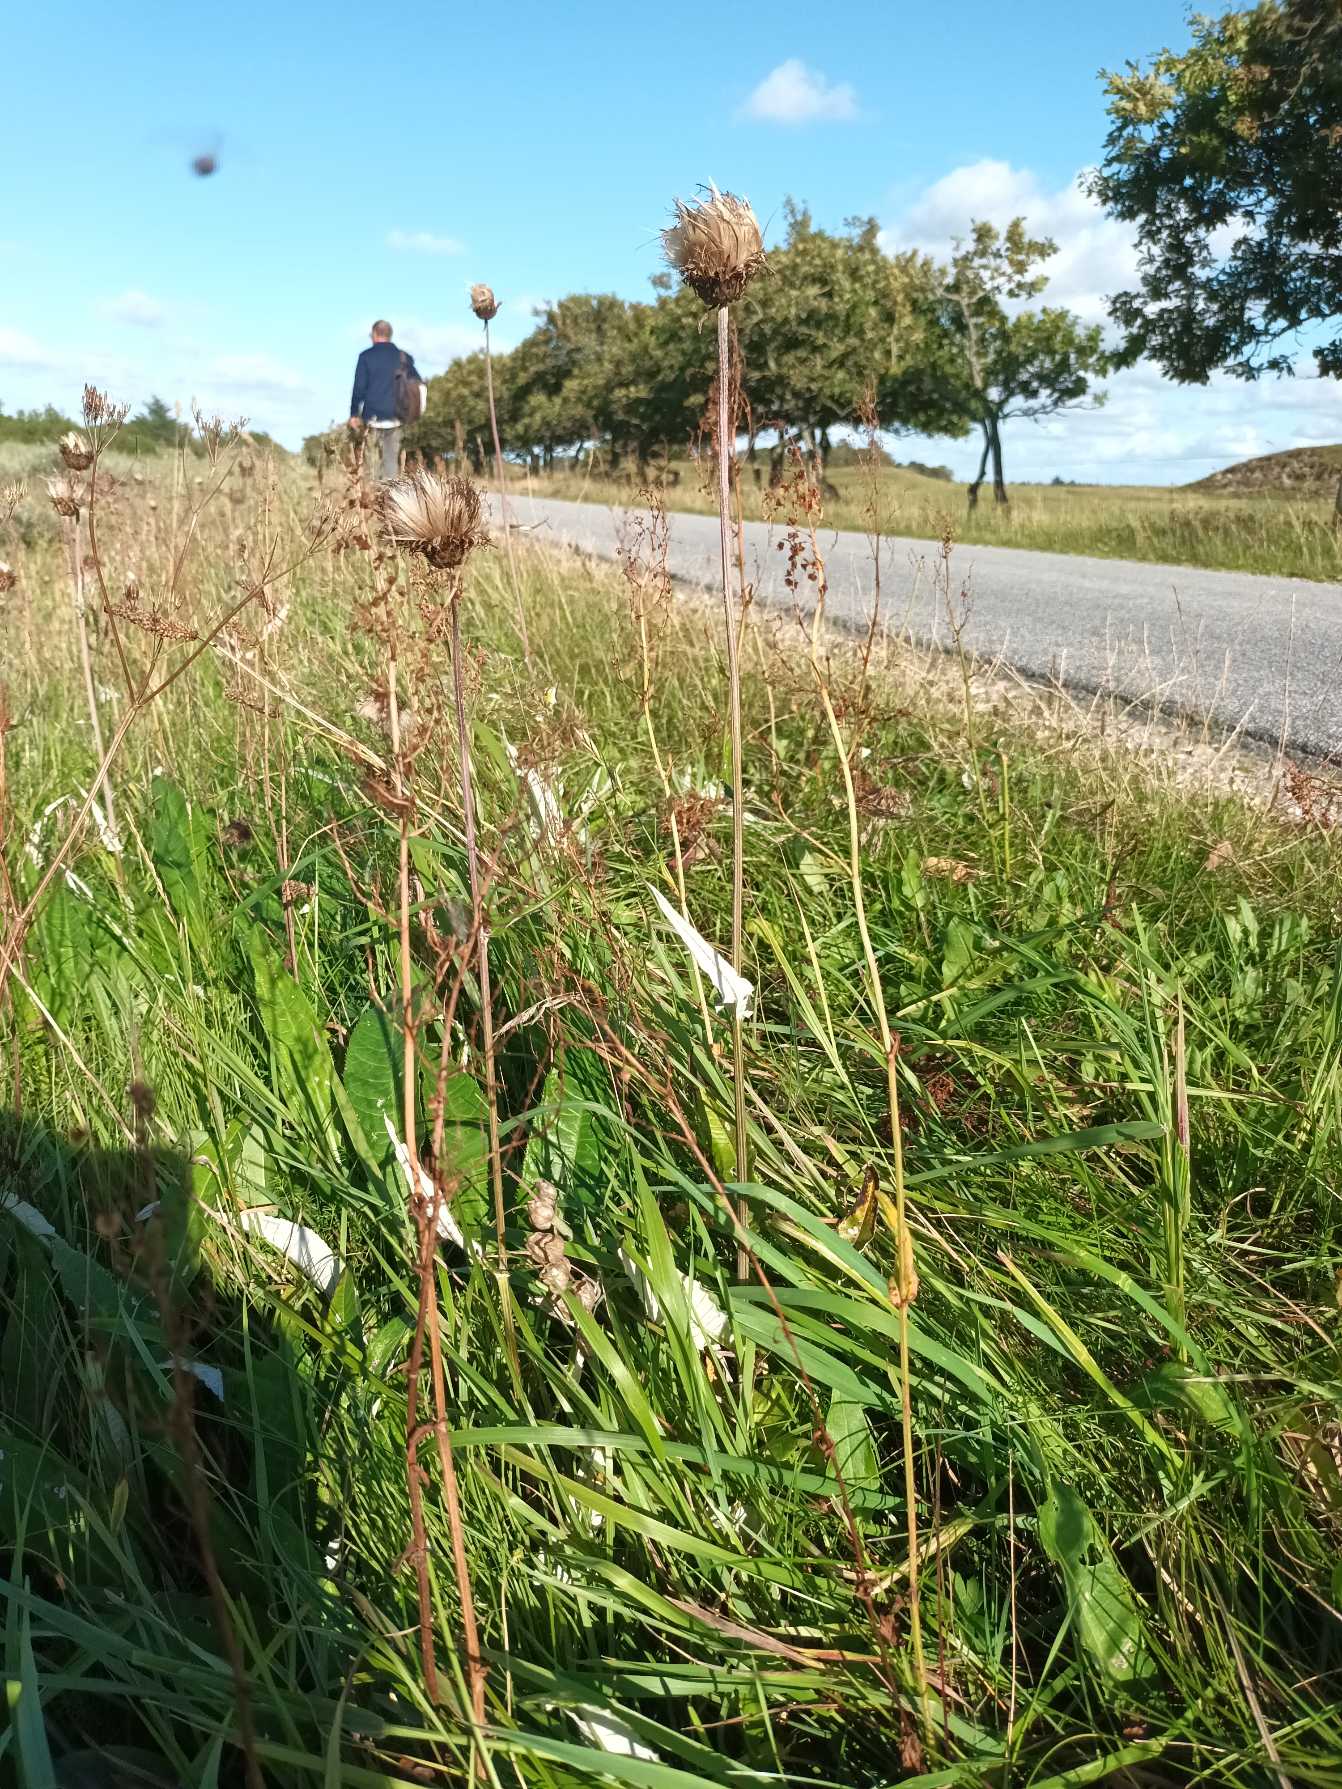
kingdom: Plantae
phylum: Tracheophyta
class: Magnoliopsida
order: Asterales
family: Asteraceae
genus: Cirsium
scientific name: Cirsium heterophyllum
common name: Forskelligbladet tidsel
